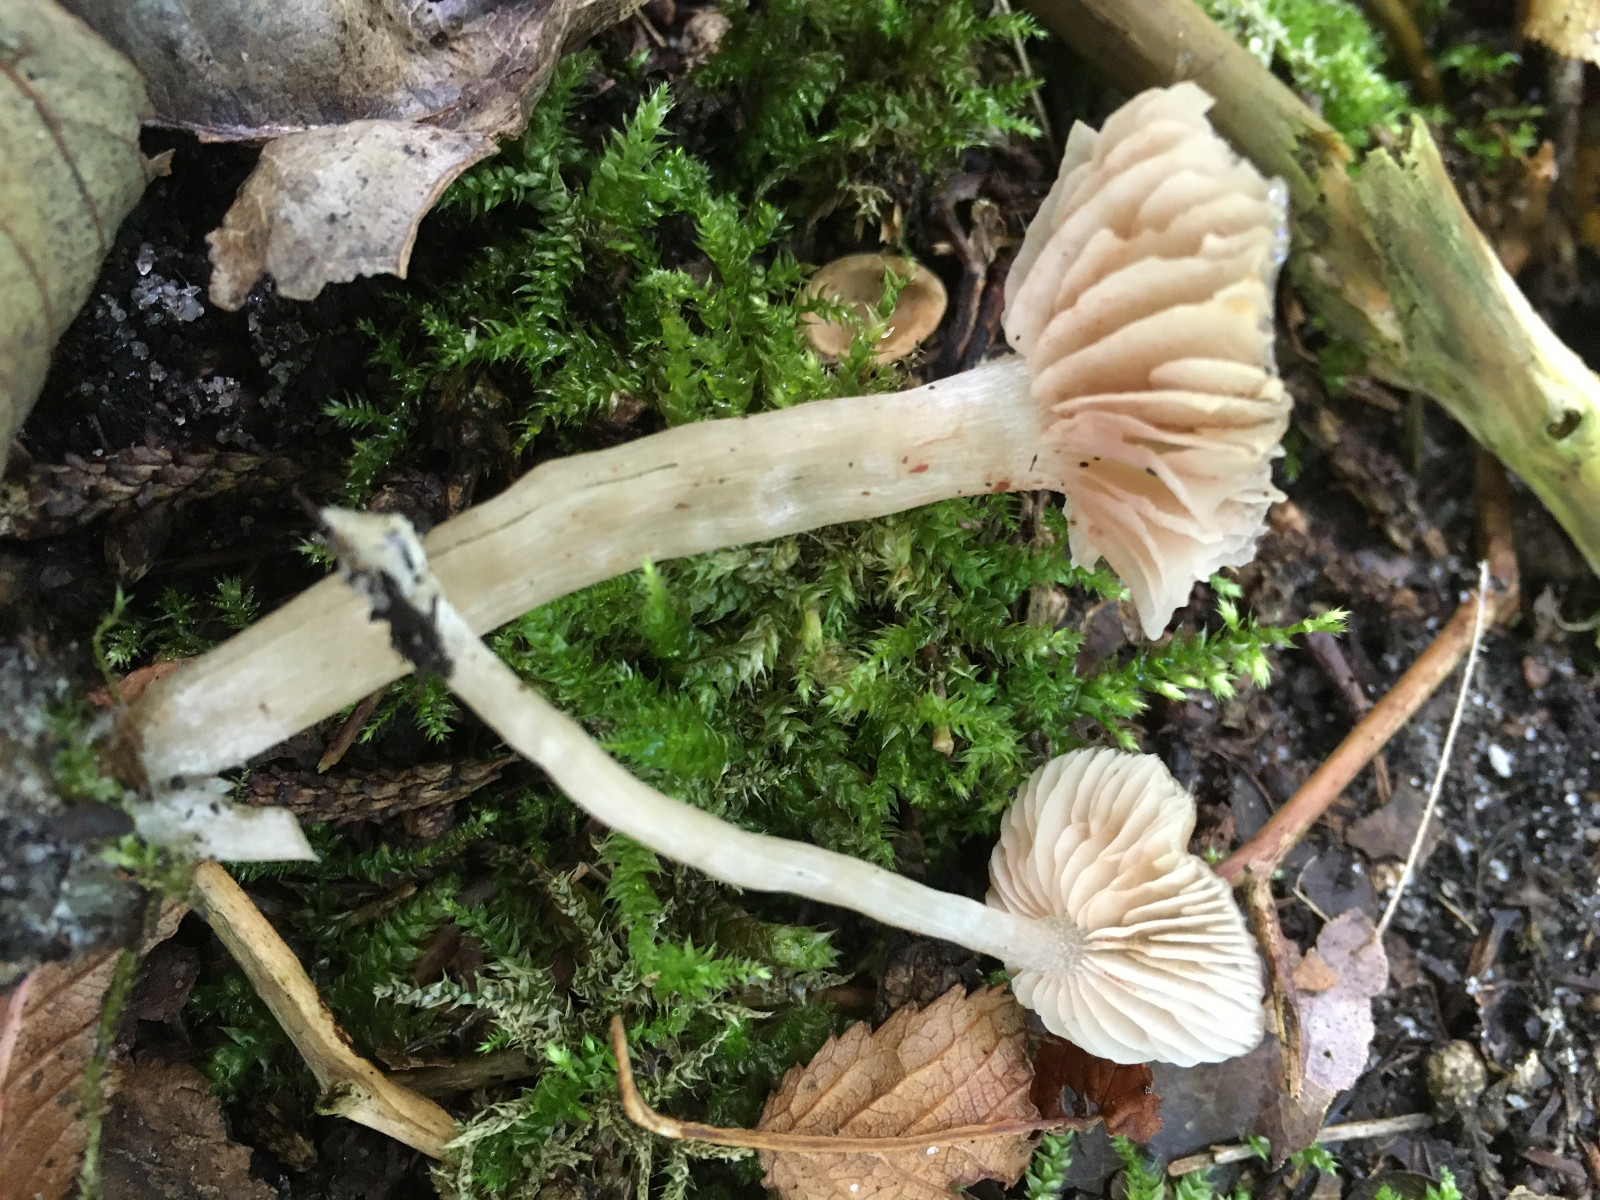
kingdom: Fungi
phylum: Basidiomycota
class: Agaricomycetes
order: Agaricales
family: Entolomataceae
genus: Entoloma
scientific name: Entoloma
